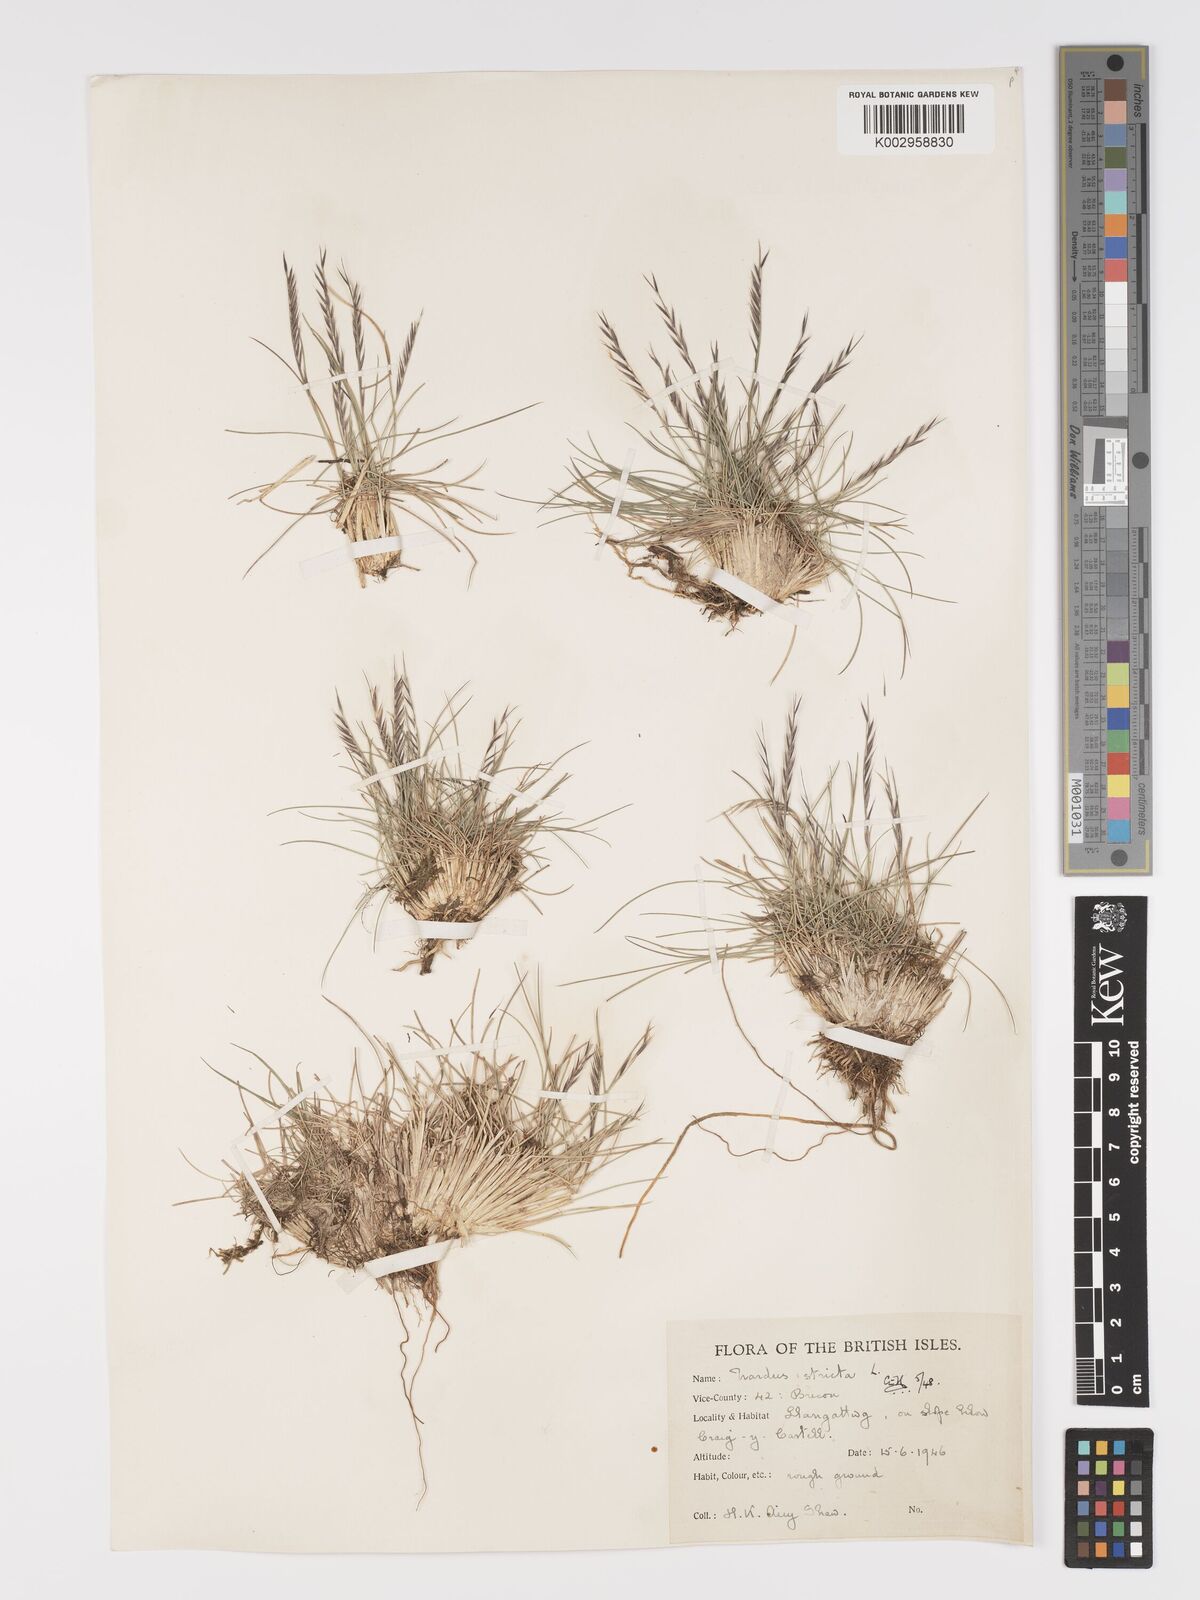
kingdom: Plantae
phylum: Tracheophyta
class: Liliopsida
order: Poales
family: Poaceae
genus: Nardus
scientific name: Nardus stricta
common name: Mat-grass
